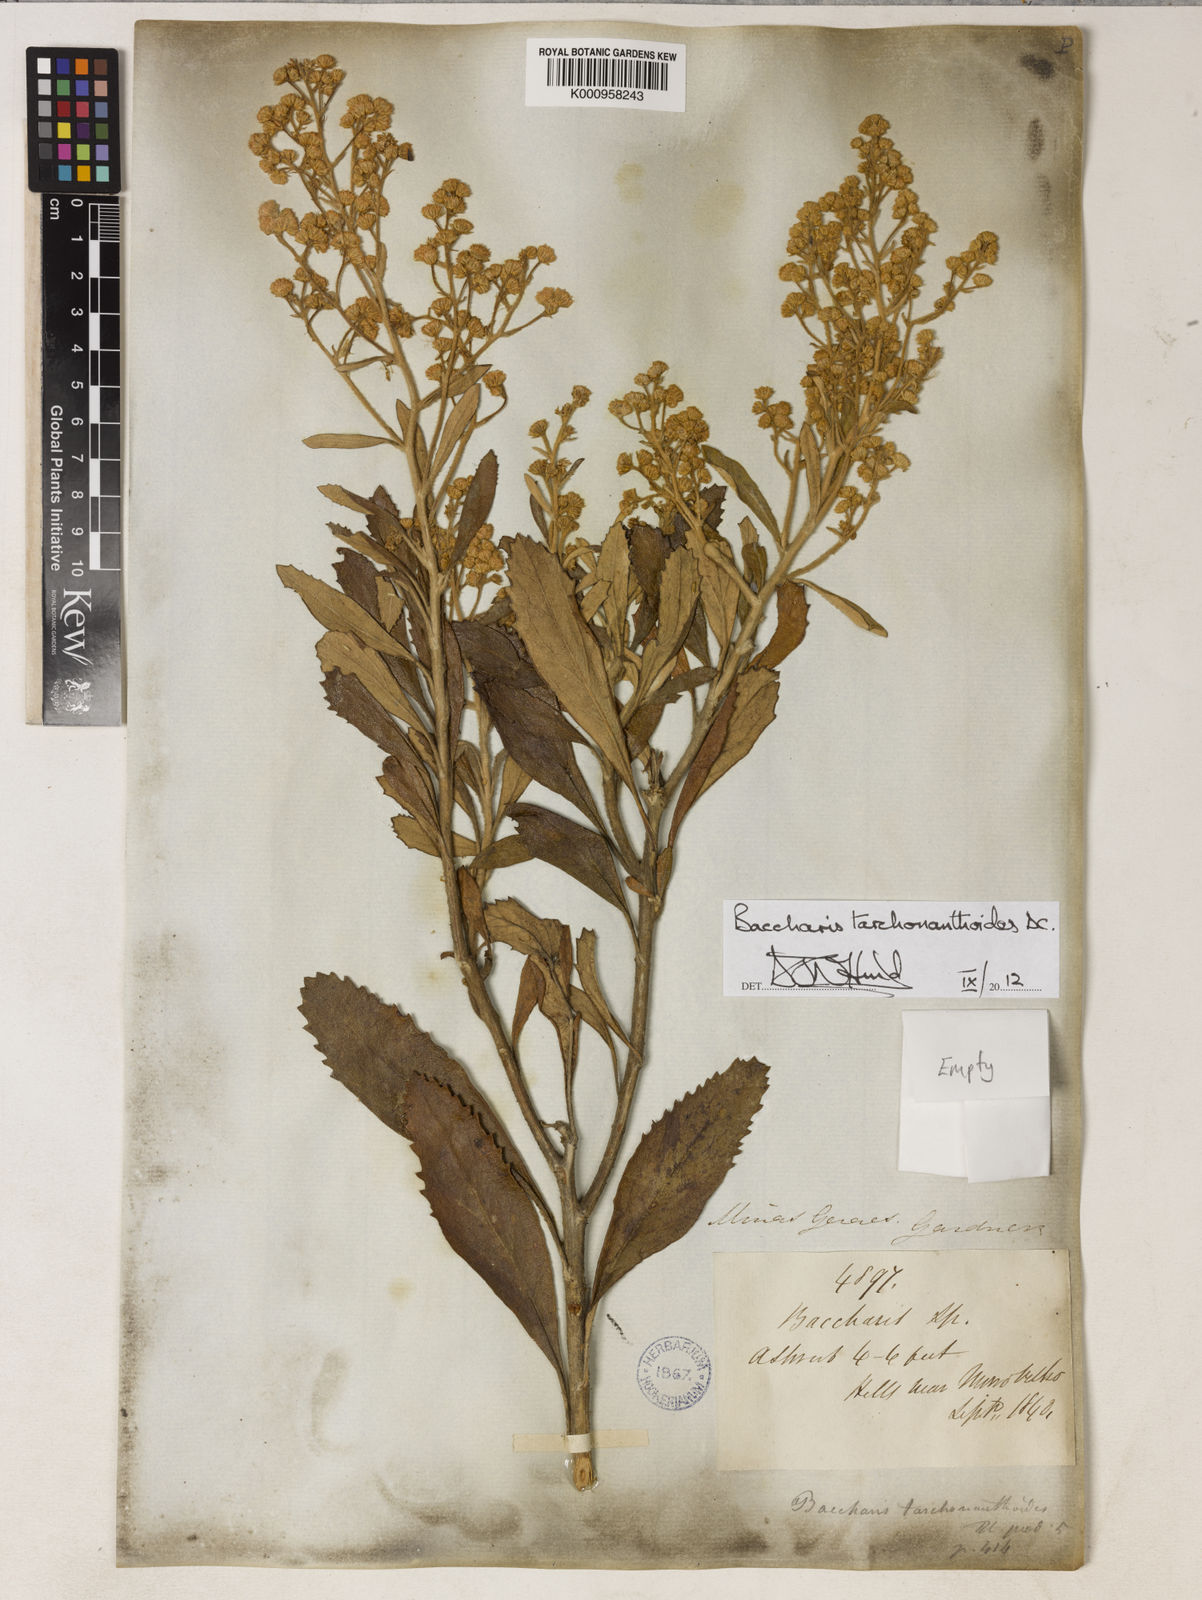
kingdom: Plantae
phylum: Tracheophyta
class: Magnoliopsida
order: Asterales
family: Asteraceae
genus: Baccharis
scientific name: Baccharis tarchonanthoides
